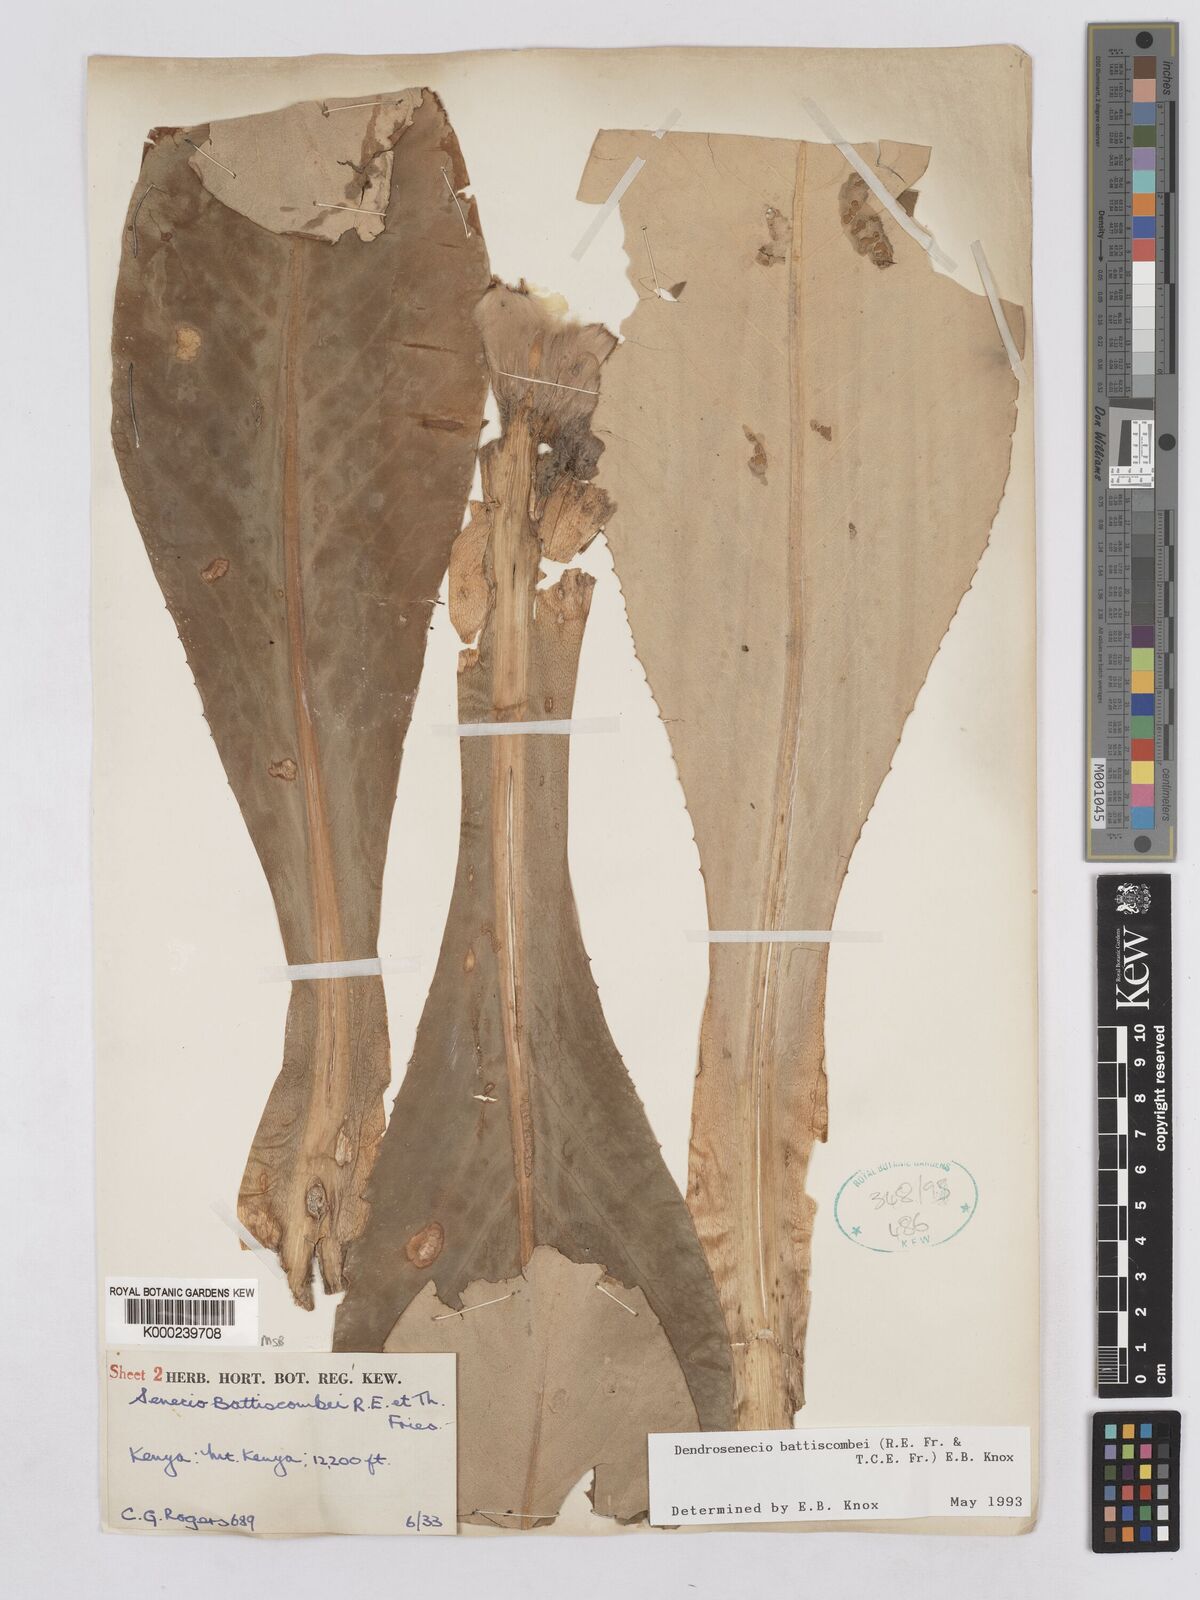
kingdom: Plantae
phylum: Tracheophyta
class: Magnoliopsida
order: Asterales
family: Asteraceae
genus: Dendrosenecio
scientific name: Dendrosenecio battiscombei
